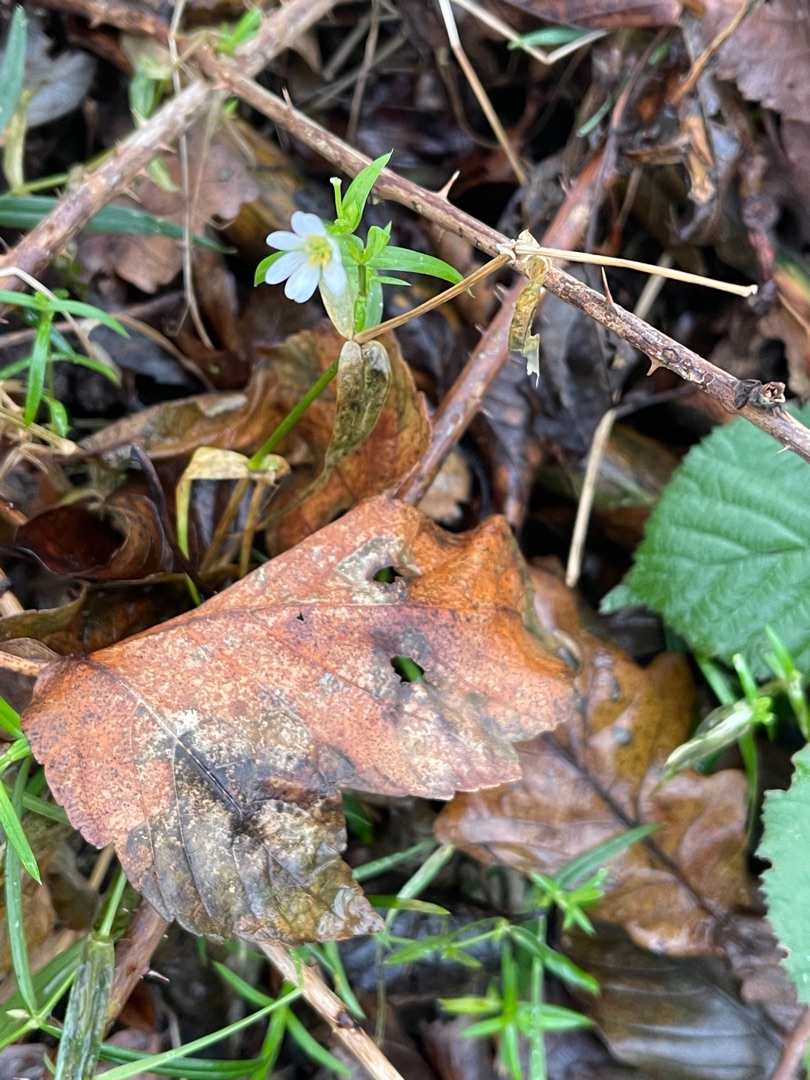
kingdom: Plantae
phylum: Tracheophyta
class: Magnoliopsida
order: Caryophyllales
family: Caryophyllaceae
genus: Rabelera
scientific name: Rabelera holostea
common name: Stor fladstjerne
